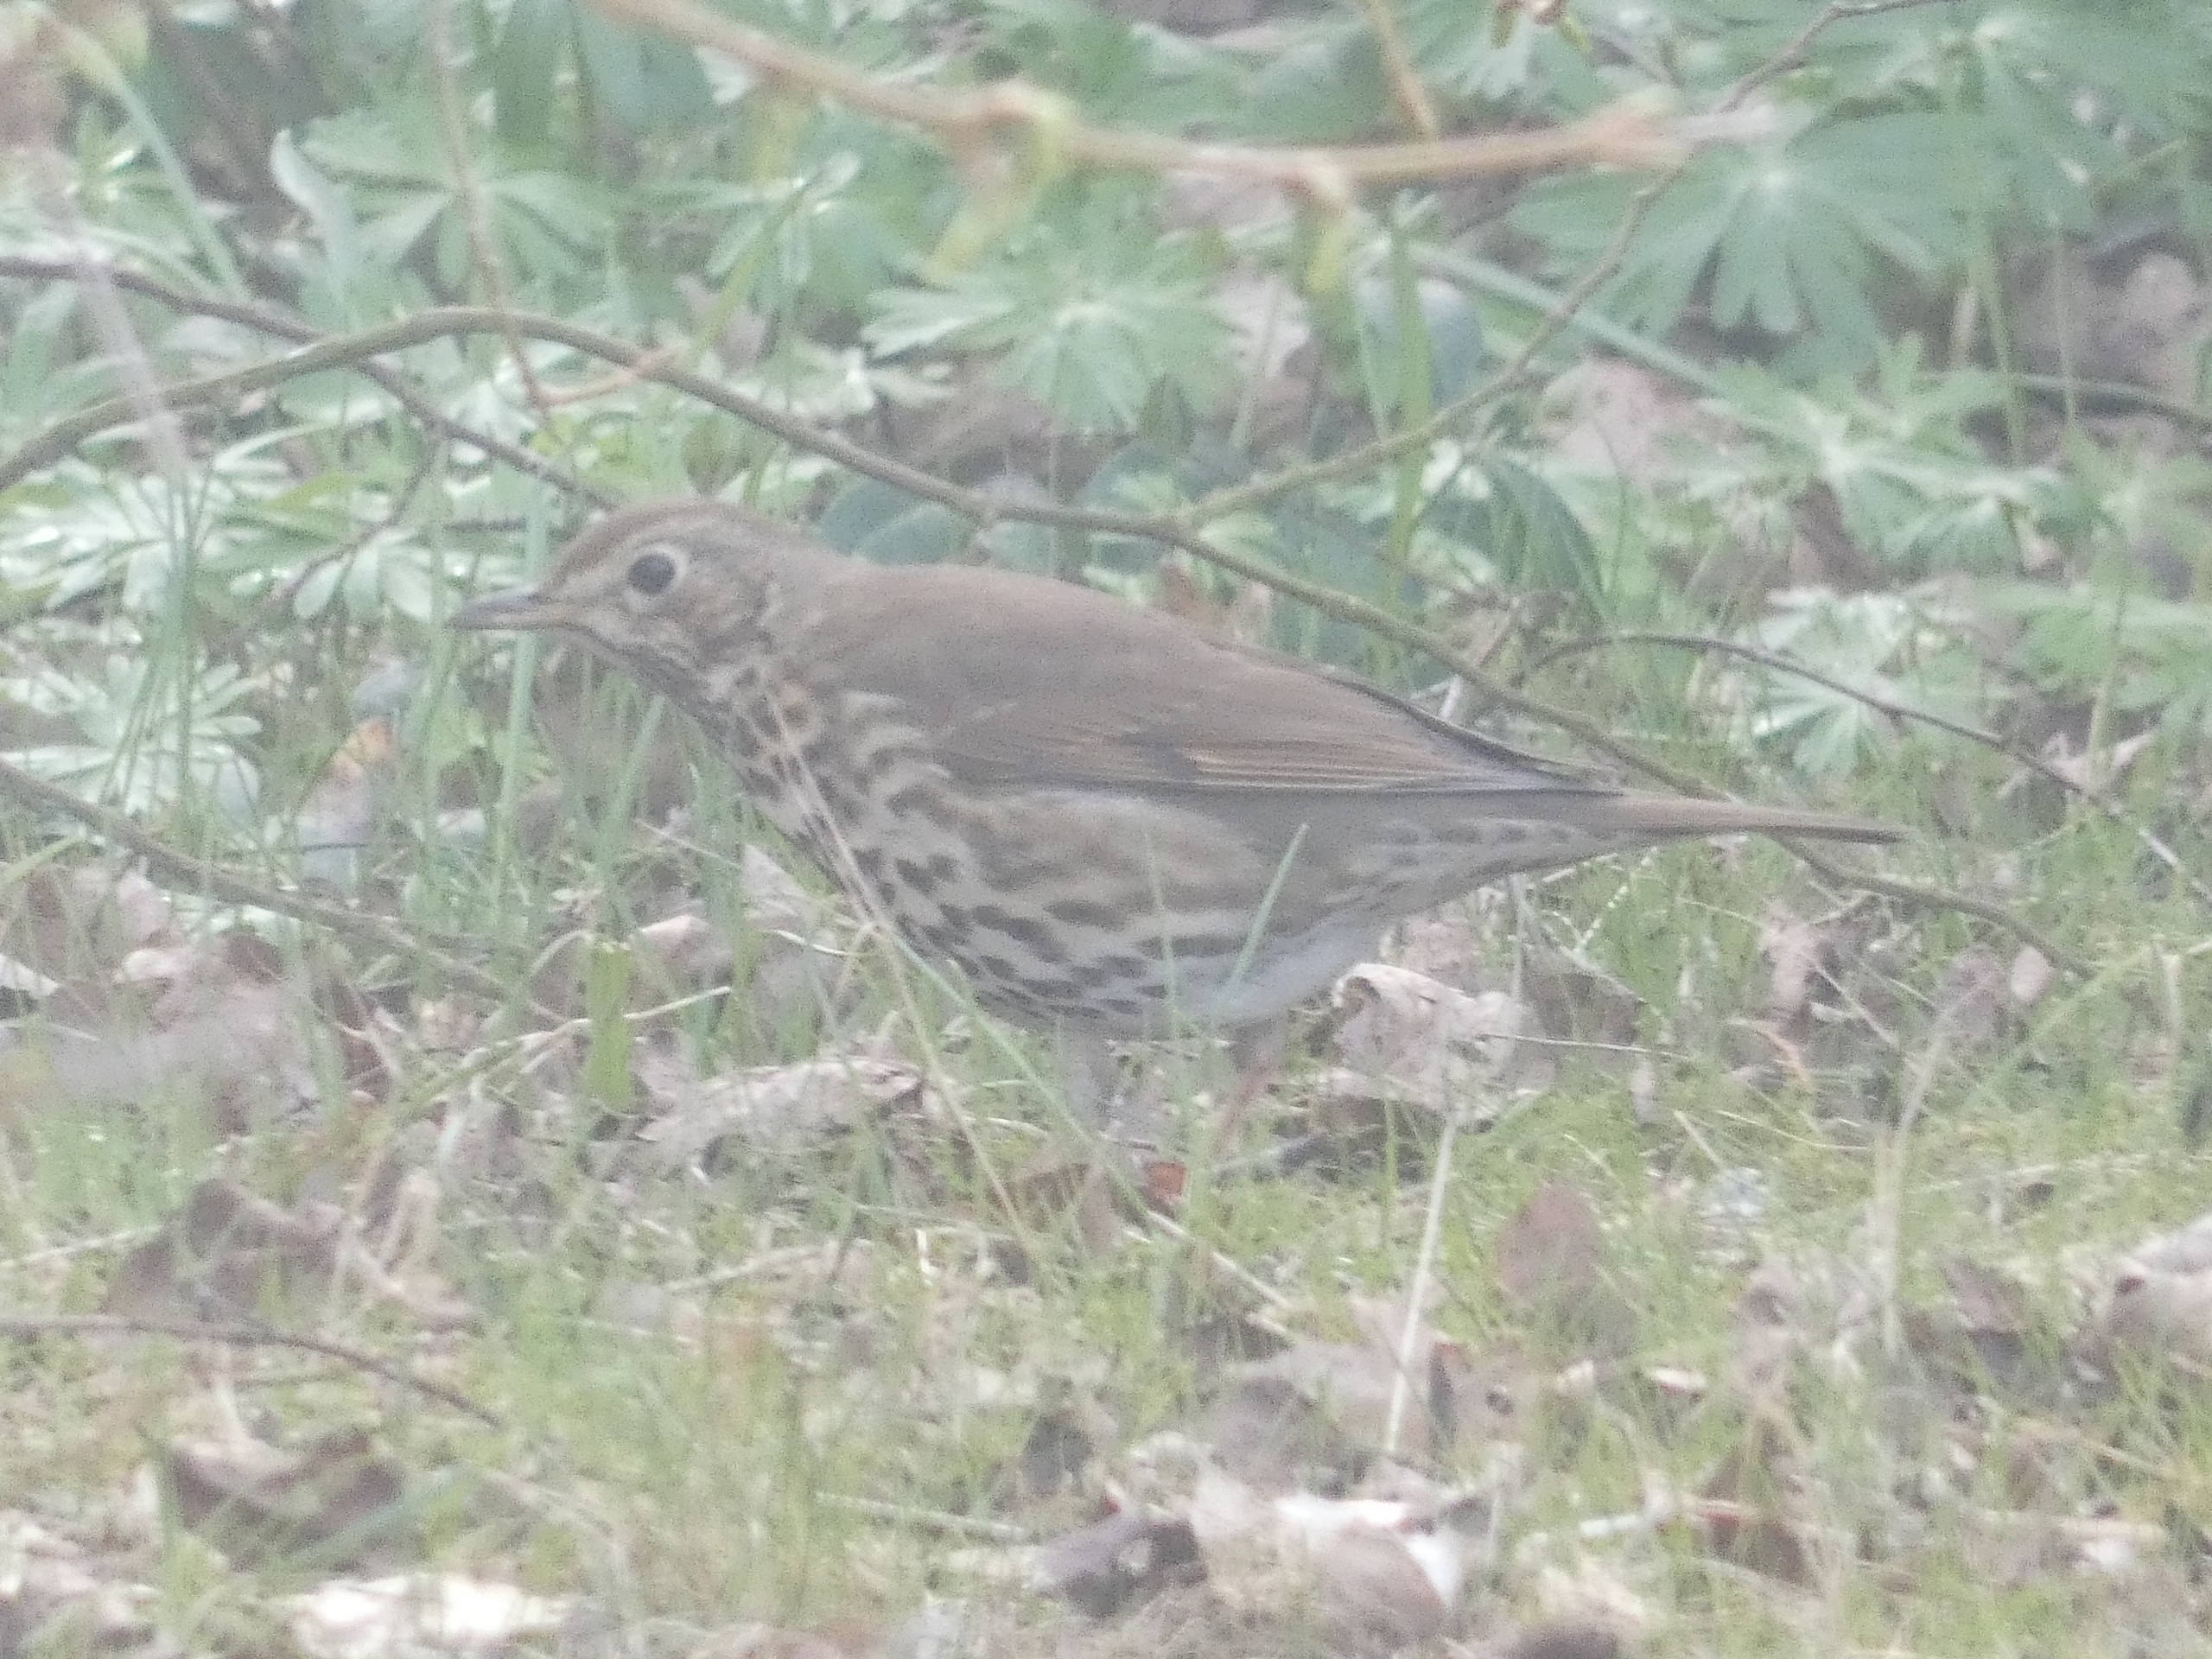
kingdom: Animalia
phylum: Chordata
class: Aves
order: Passeriformes
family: Turdidae
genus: Turdus
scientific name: Turdus philomelos
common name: Sangdrossel
